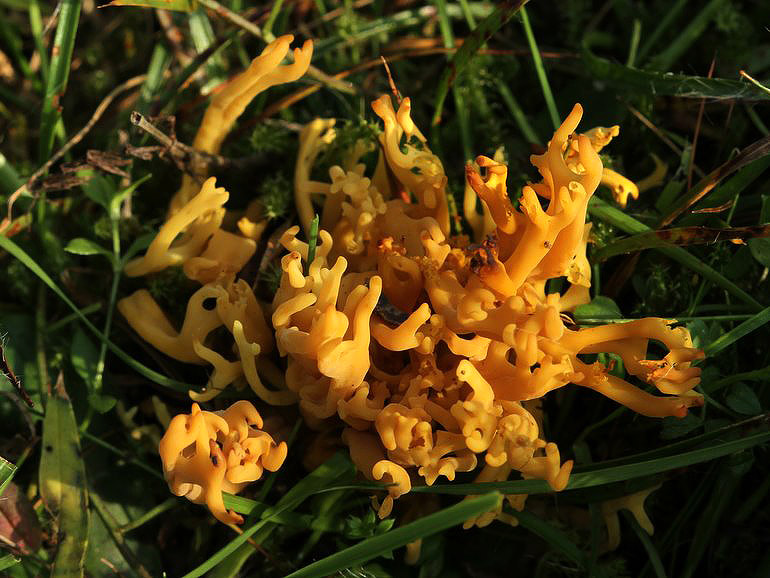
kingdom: Fungi
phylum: Basidiomycota
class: Agaricomycetes
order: Agaricales
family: Clavariaceae
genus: Clavulinopsis
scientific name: Clavulinopsis corniculata
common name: eng-køllesvamp
